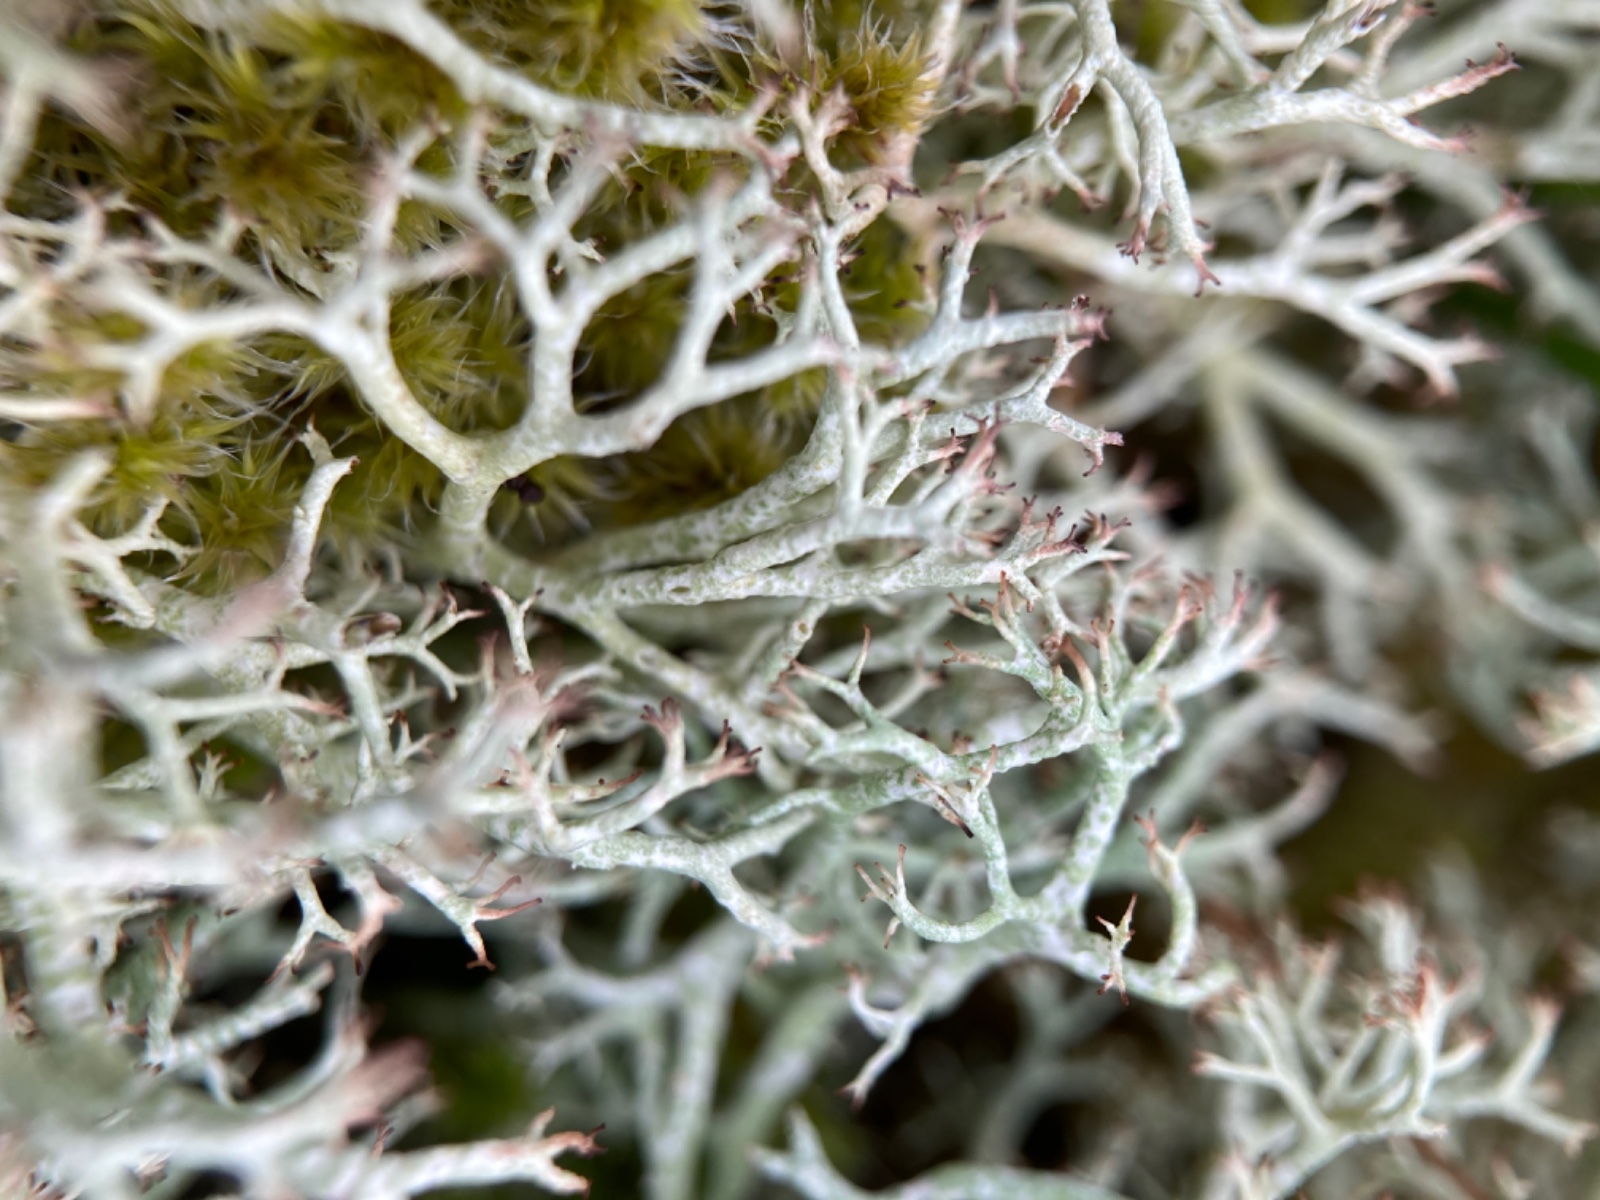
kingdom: Fungi
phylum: Ascomycota
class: Lecanoromycetes
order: Lecanorales
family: Cladoniaceae
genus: Cladonia
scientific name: Cladonia rangiformis
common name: spættet bægerlav
